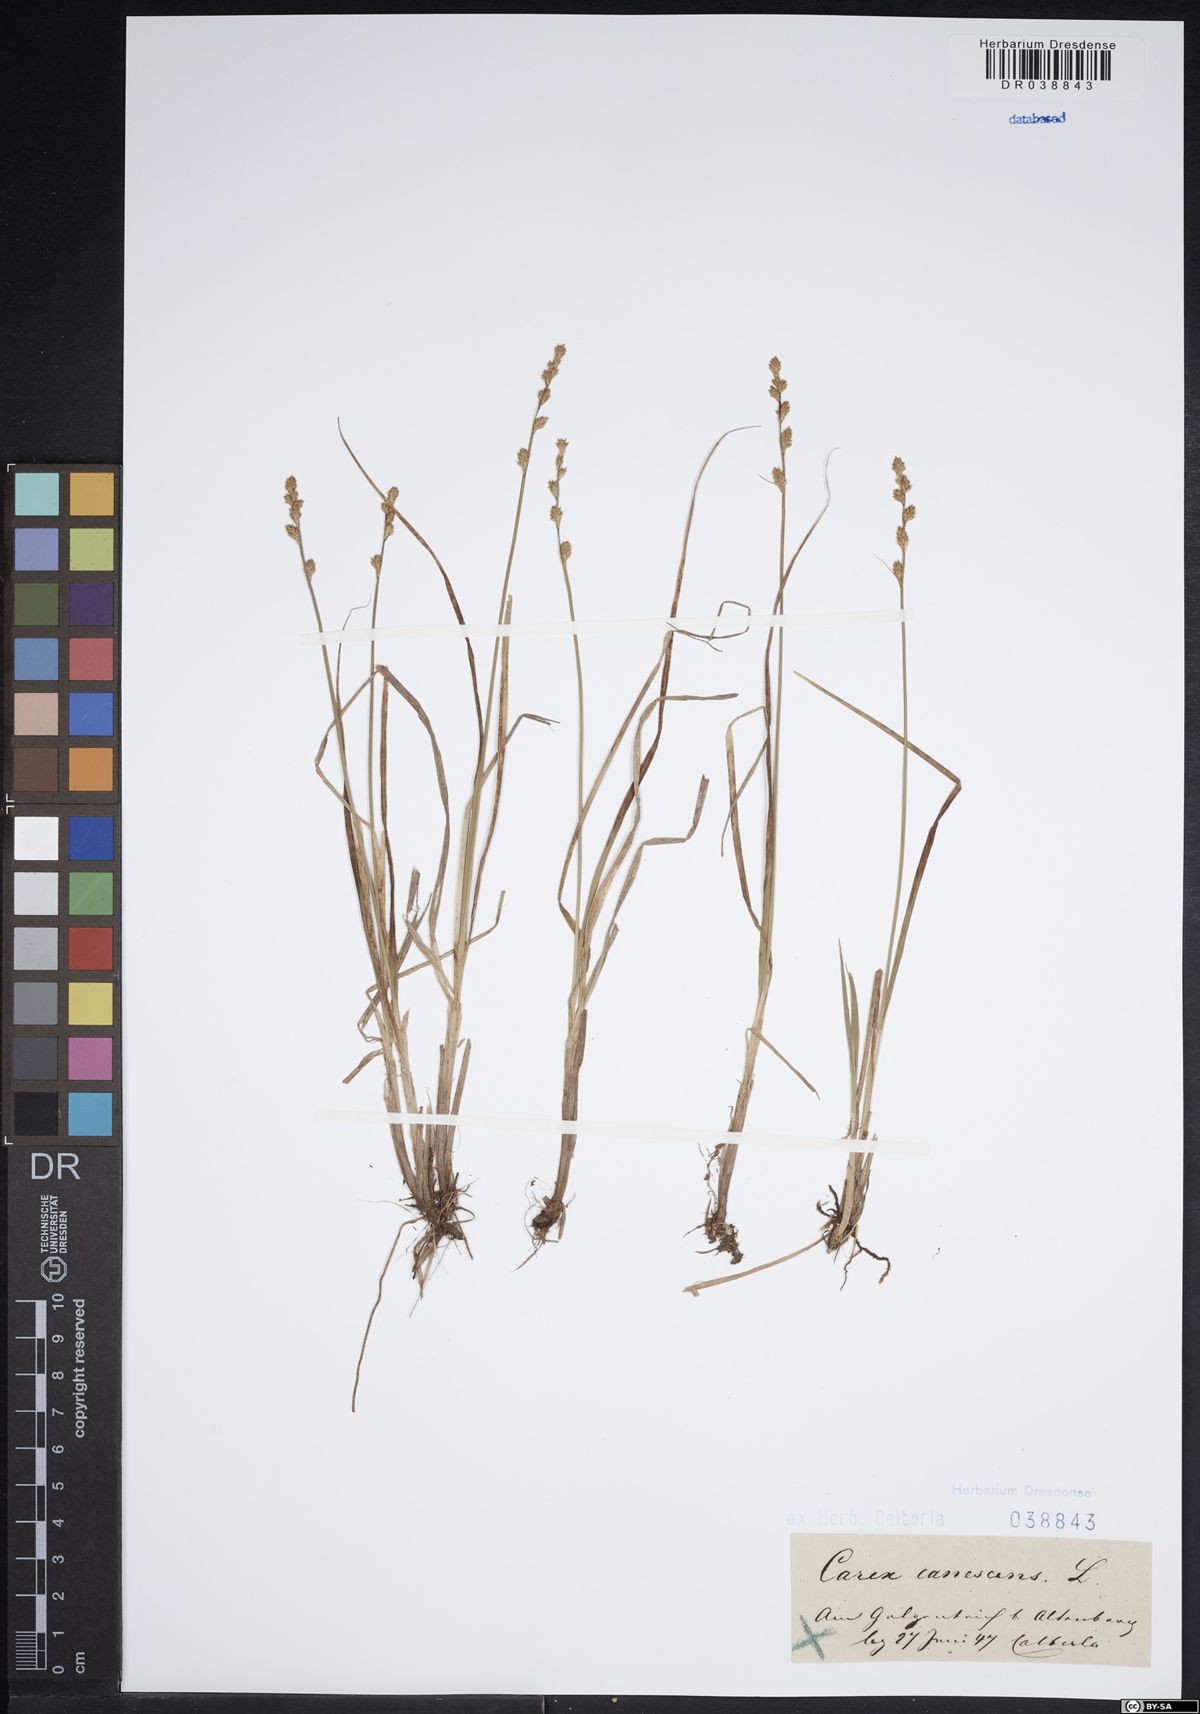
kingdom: Plantae
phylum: Tracheophyta
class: Liliopsida
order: Poales
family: Cyperaceae
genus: Carex
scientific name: Carex canescens
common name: White sedge
